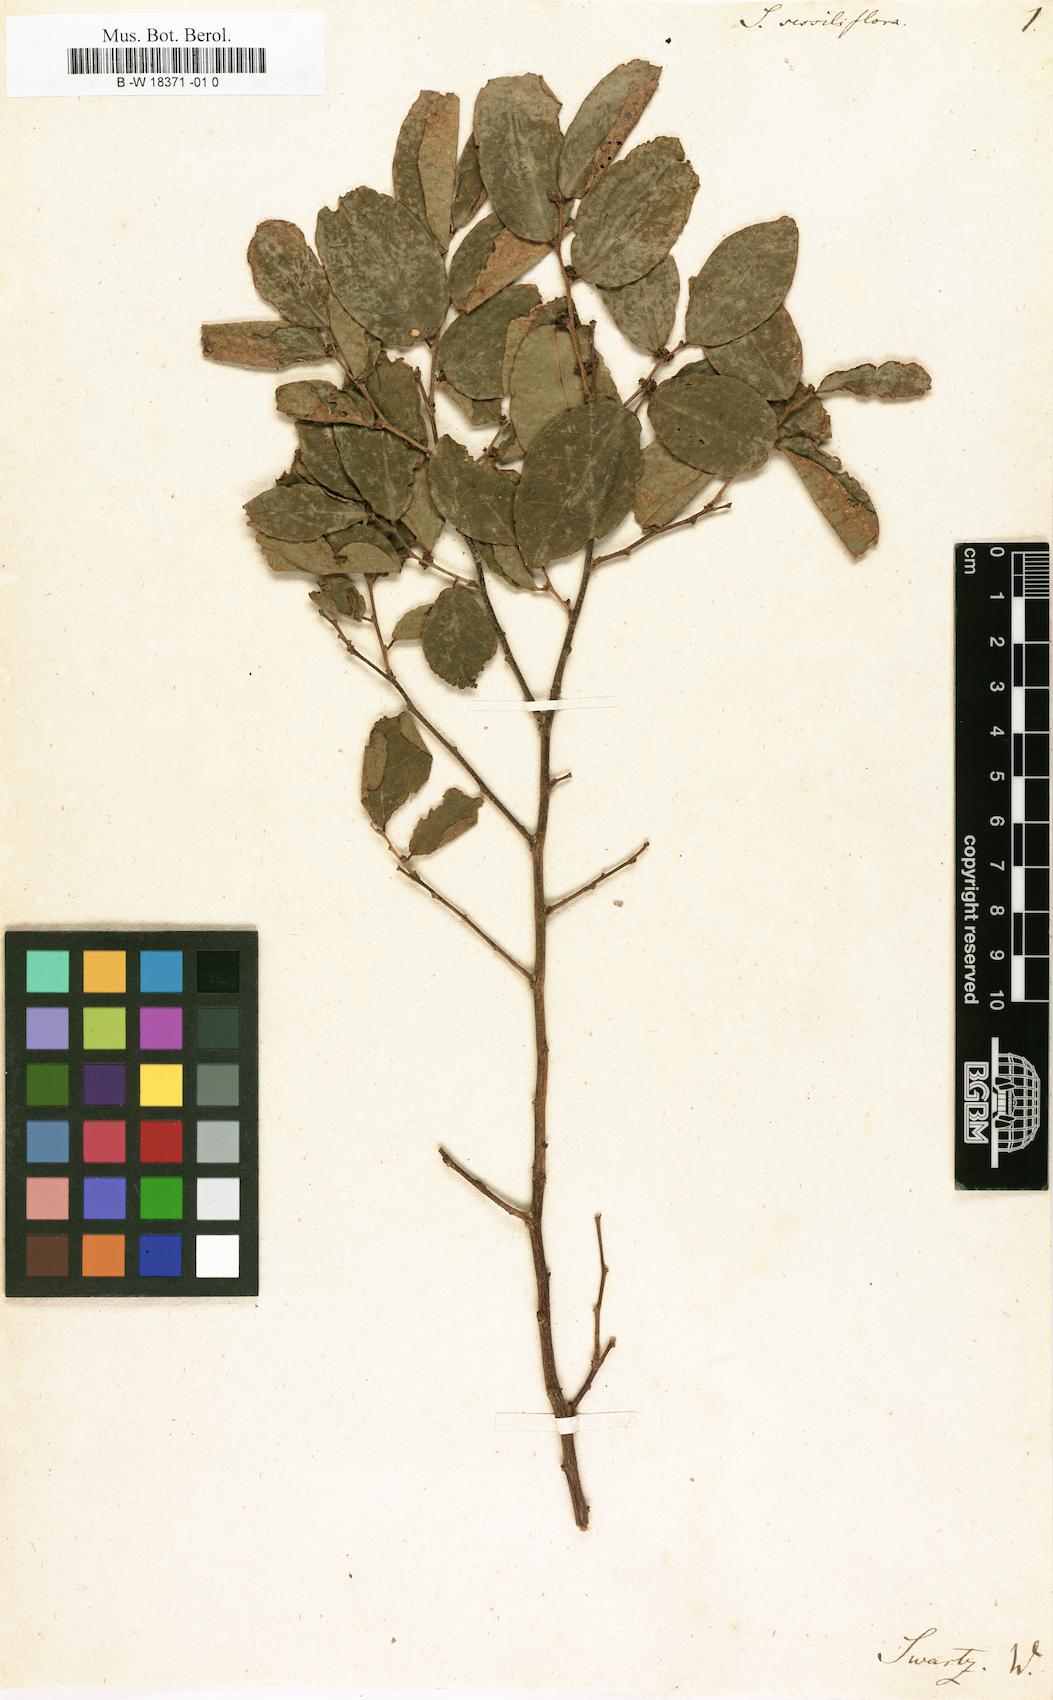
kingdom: Plantae
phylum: Tracheophyta
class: Magnoliopsida
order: Malpighiales
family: Phyllanthaceae
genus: Savia
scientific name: Savia sessiliflora
